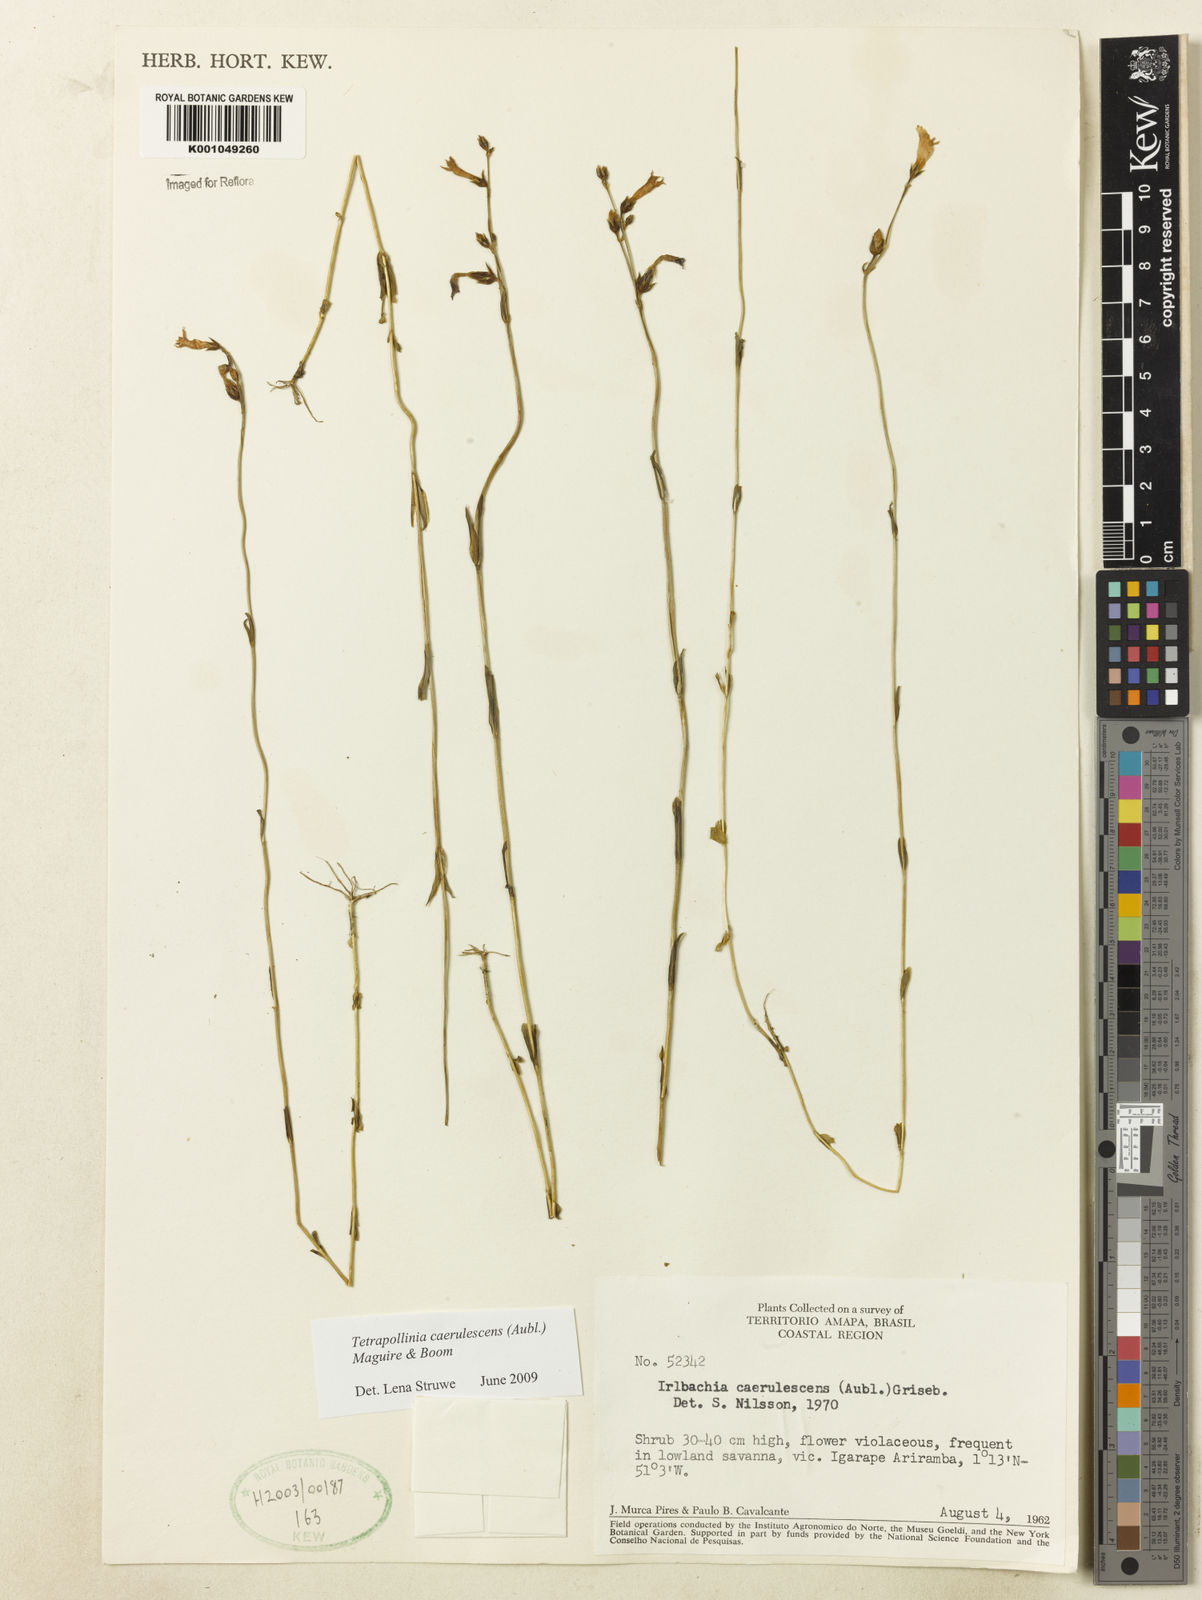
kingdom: Plantae
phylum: Tracheophyta
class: Magnoliopsida
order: Gentianales
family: Gentianaceae
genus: Tetrapollinia
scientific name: Tetrapollinia caerulescens
